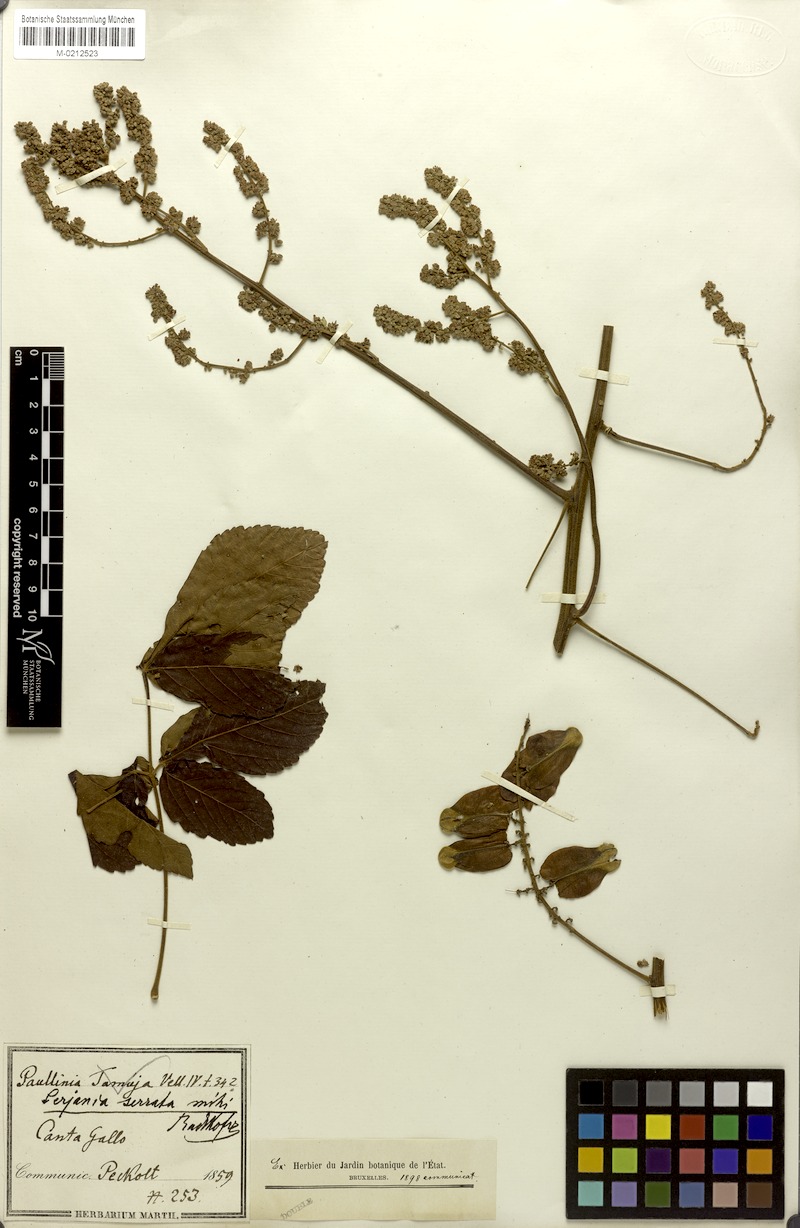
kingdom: Plantae
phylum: Tracheophyta
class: Magnoliopsida
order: Sapindales
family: Sapindaceae
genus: Serjania
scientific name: Serjania serrata
